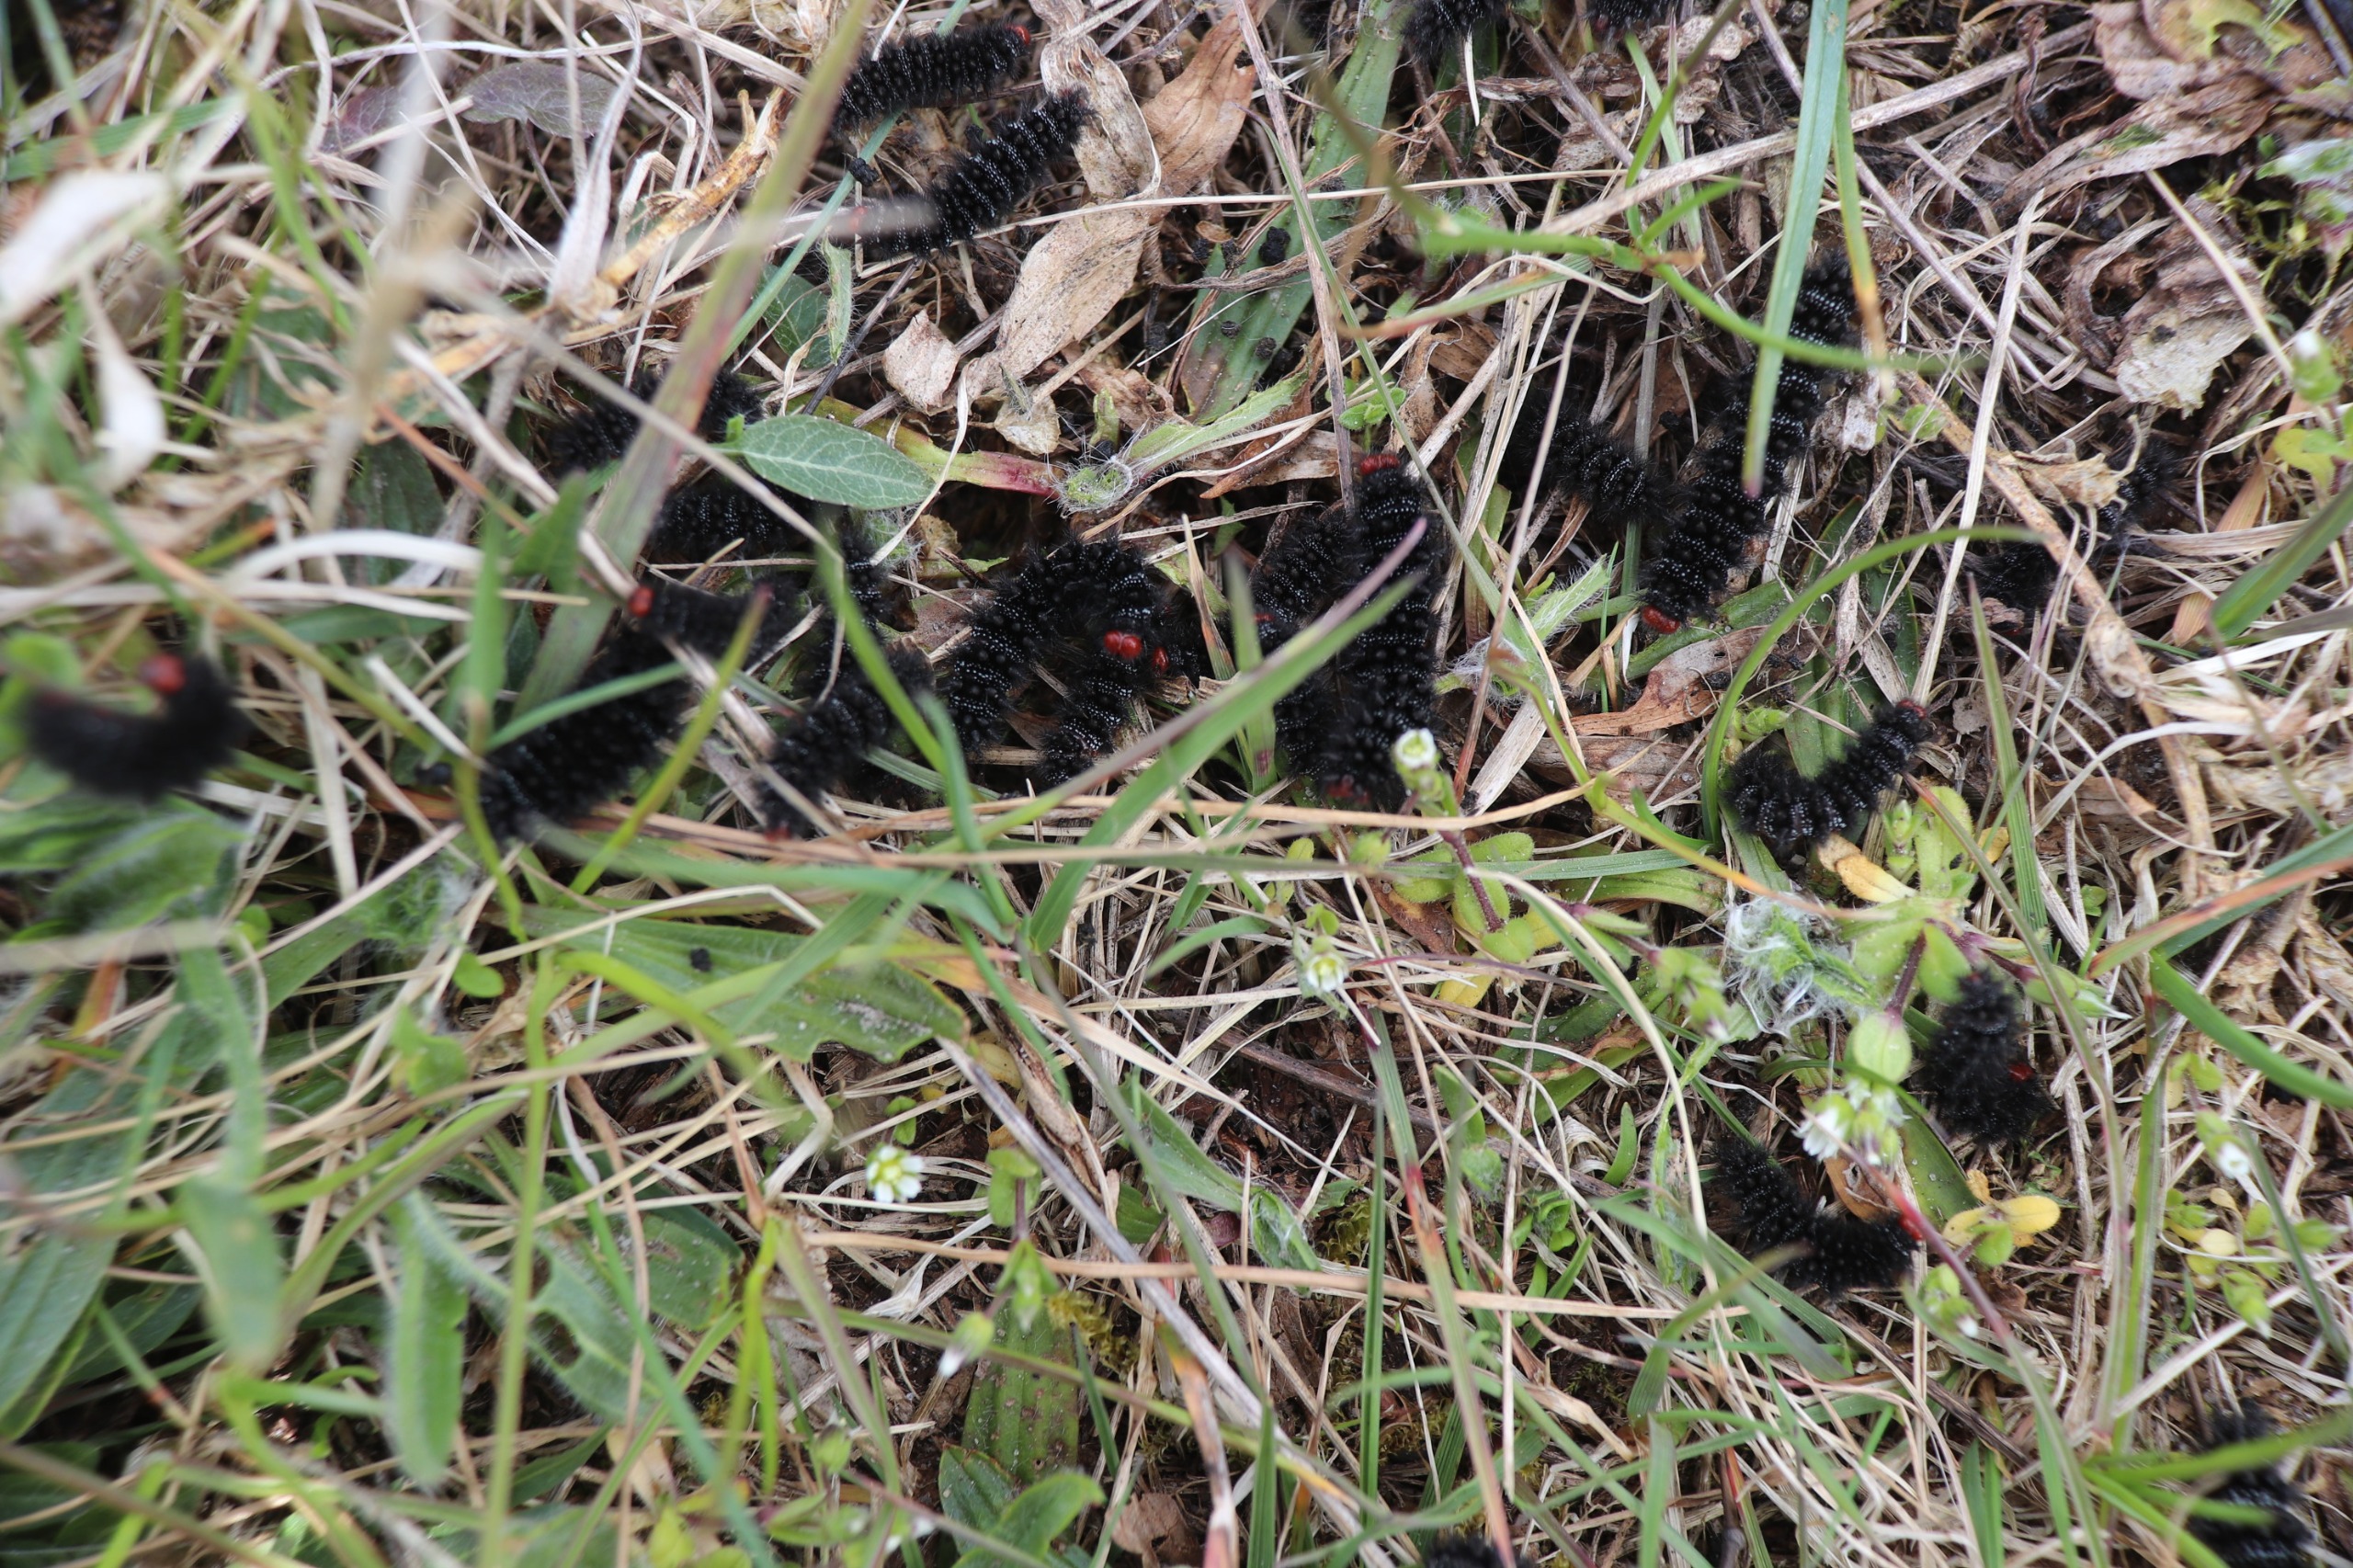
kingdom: Animalia
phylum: Arthropoda
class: Insecta
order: Lepidoptera
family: Nymphalidae
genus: Melitaea
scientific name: Melitaea cinxia
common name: Okkergul pletvinge
